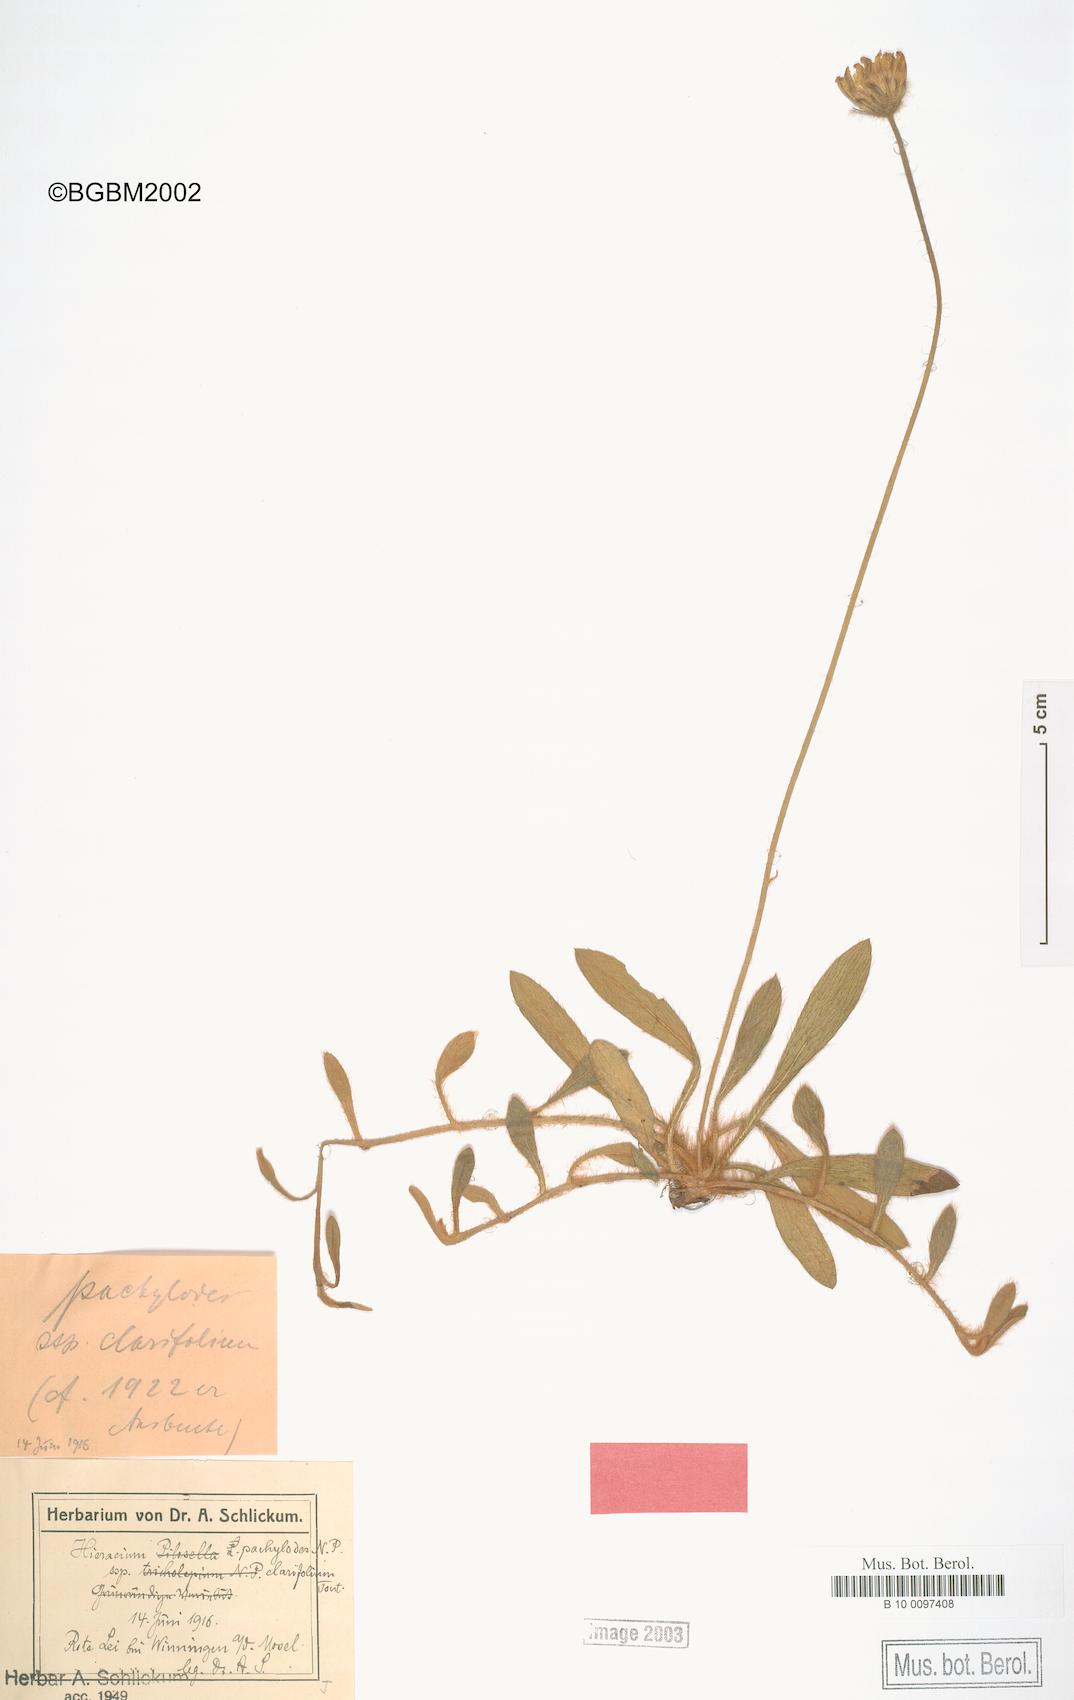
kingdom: Plantae
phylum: Tracheophyta
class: Magnoliopsida
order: Asterales
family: Asteraceae
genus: Pilosella
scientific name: Pilosella longisquama
